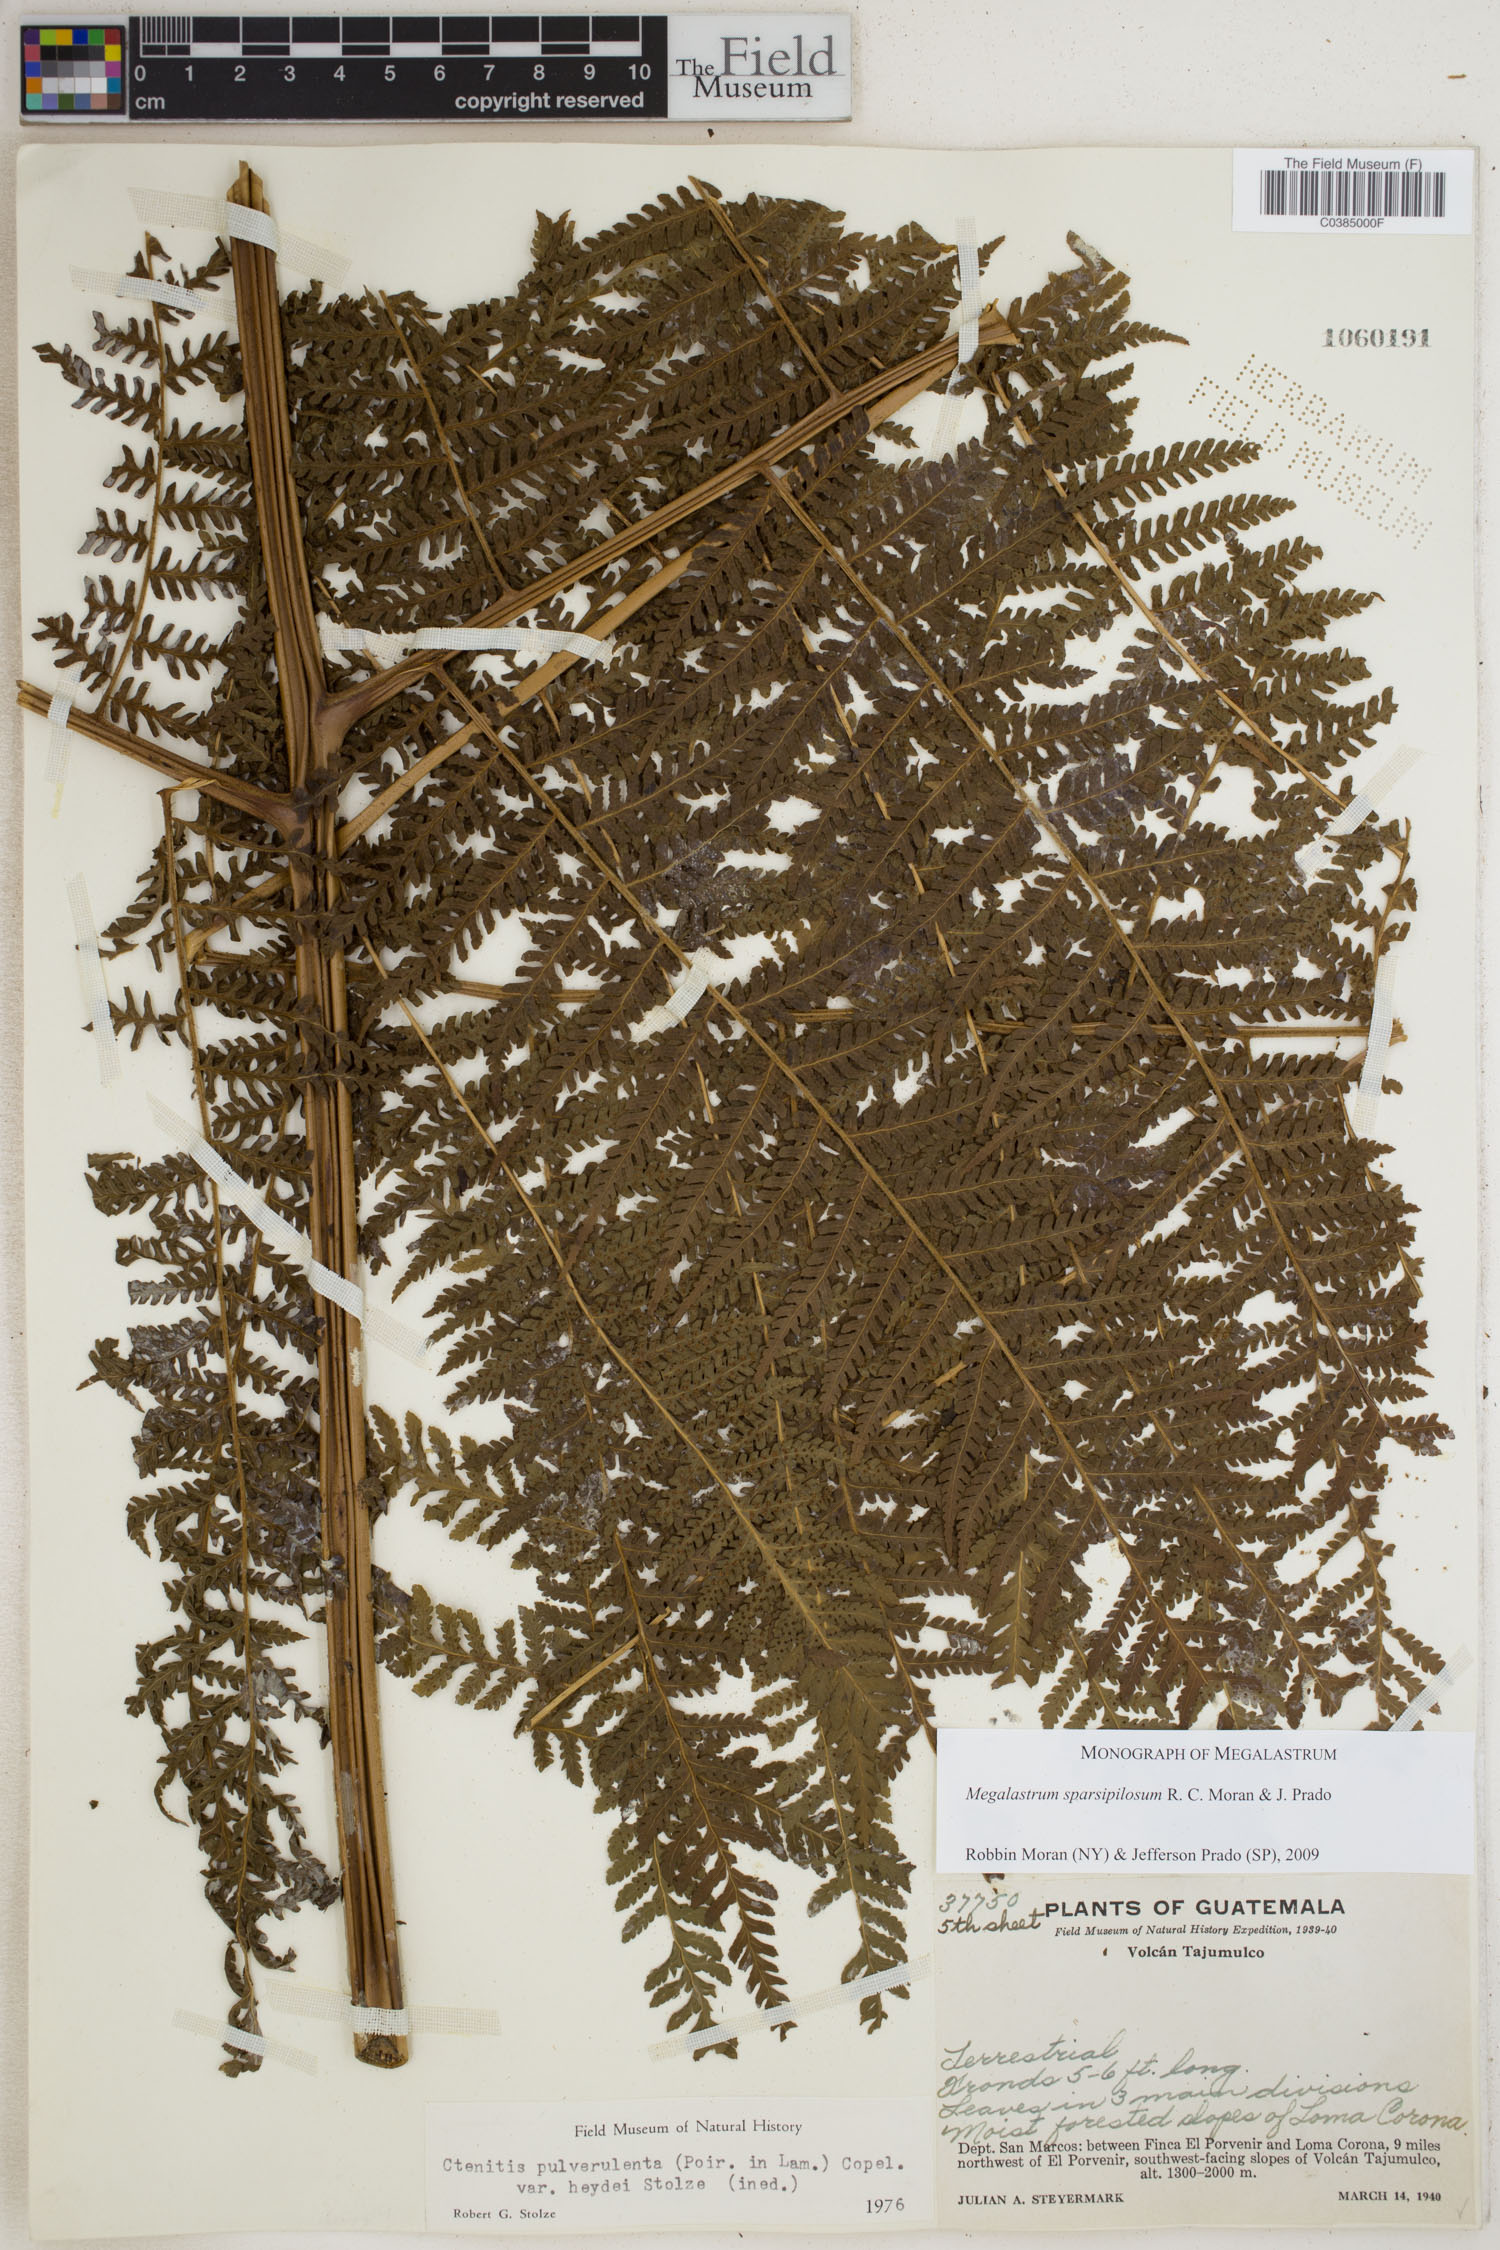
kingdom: Plantae
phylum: Tracheophyta
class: Polypodiopsida
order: Polypodiales
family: Dryopteridaceae
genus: Megalastrum
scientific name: Megalastrum sparsipilosum
